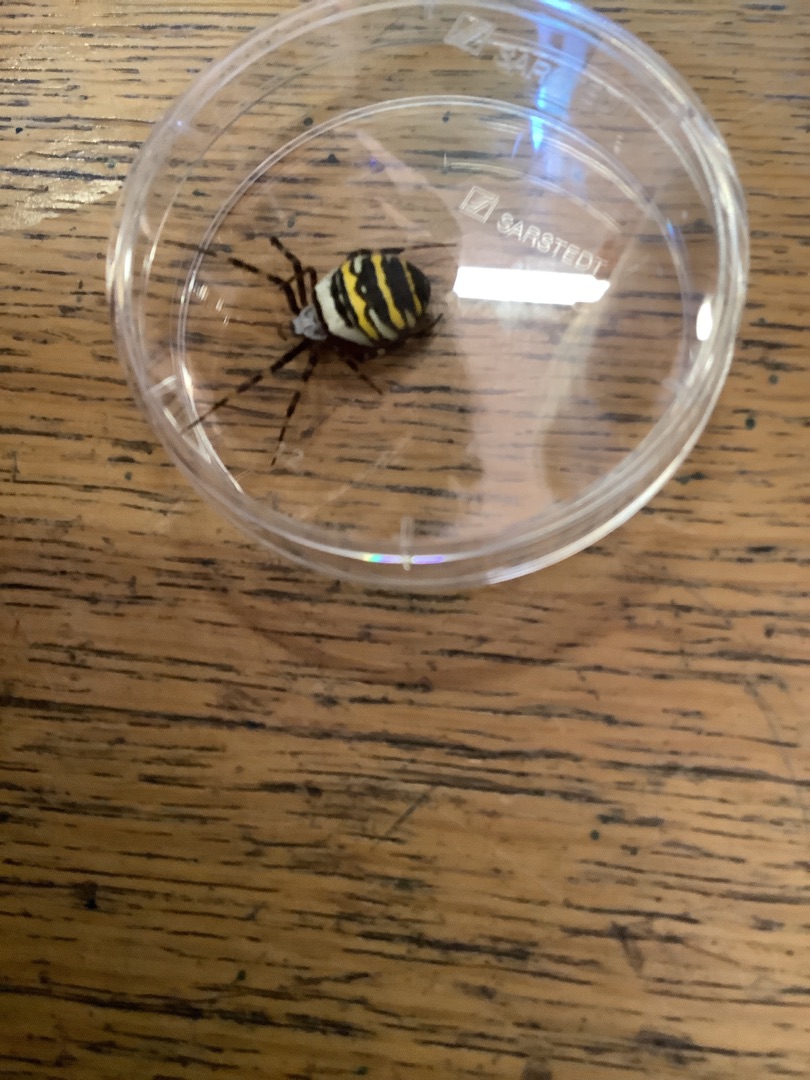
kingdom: Animalia
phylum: Arthropoda
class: Arachnida
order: Araneae
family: Araneidae
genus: Argiope
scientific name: Argiope bruennichi
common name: Hvepseedderkop
